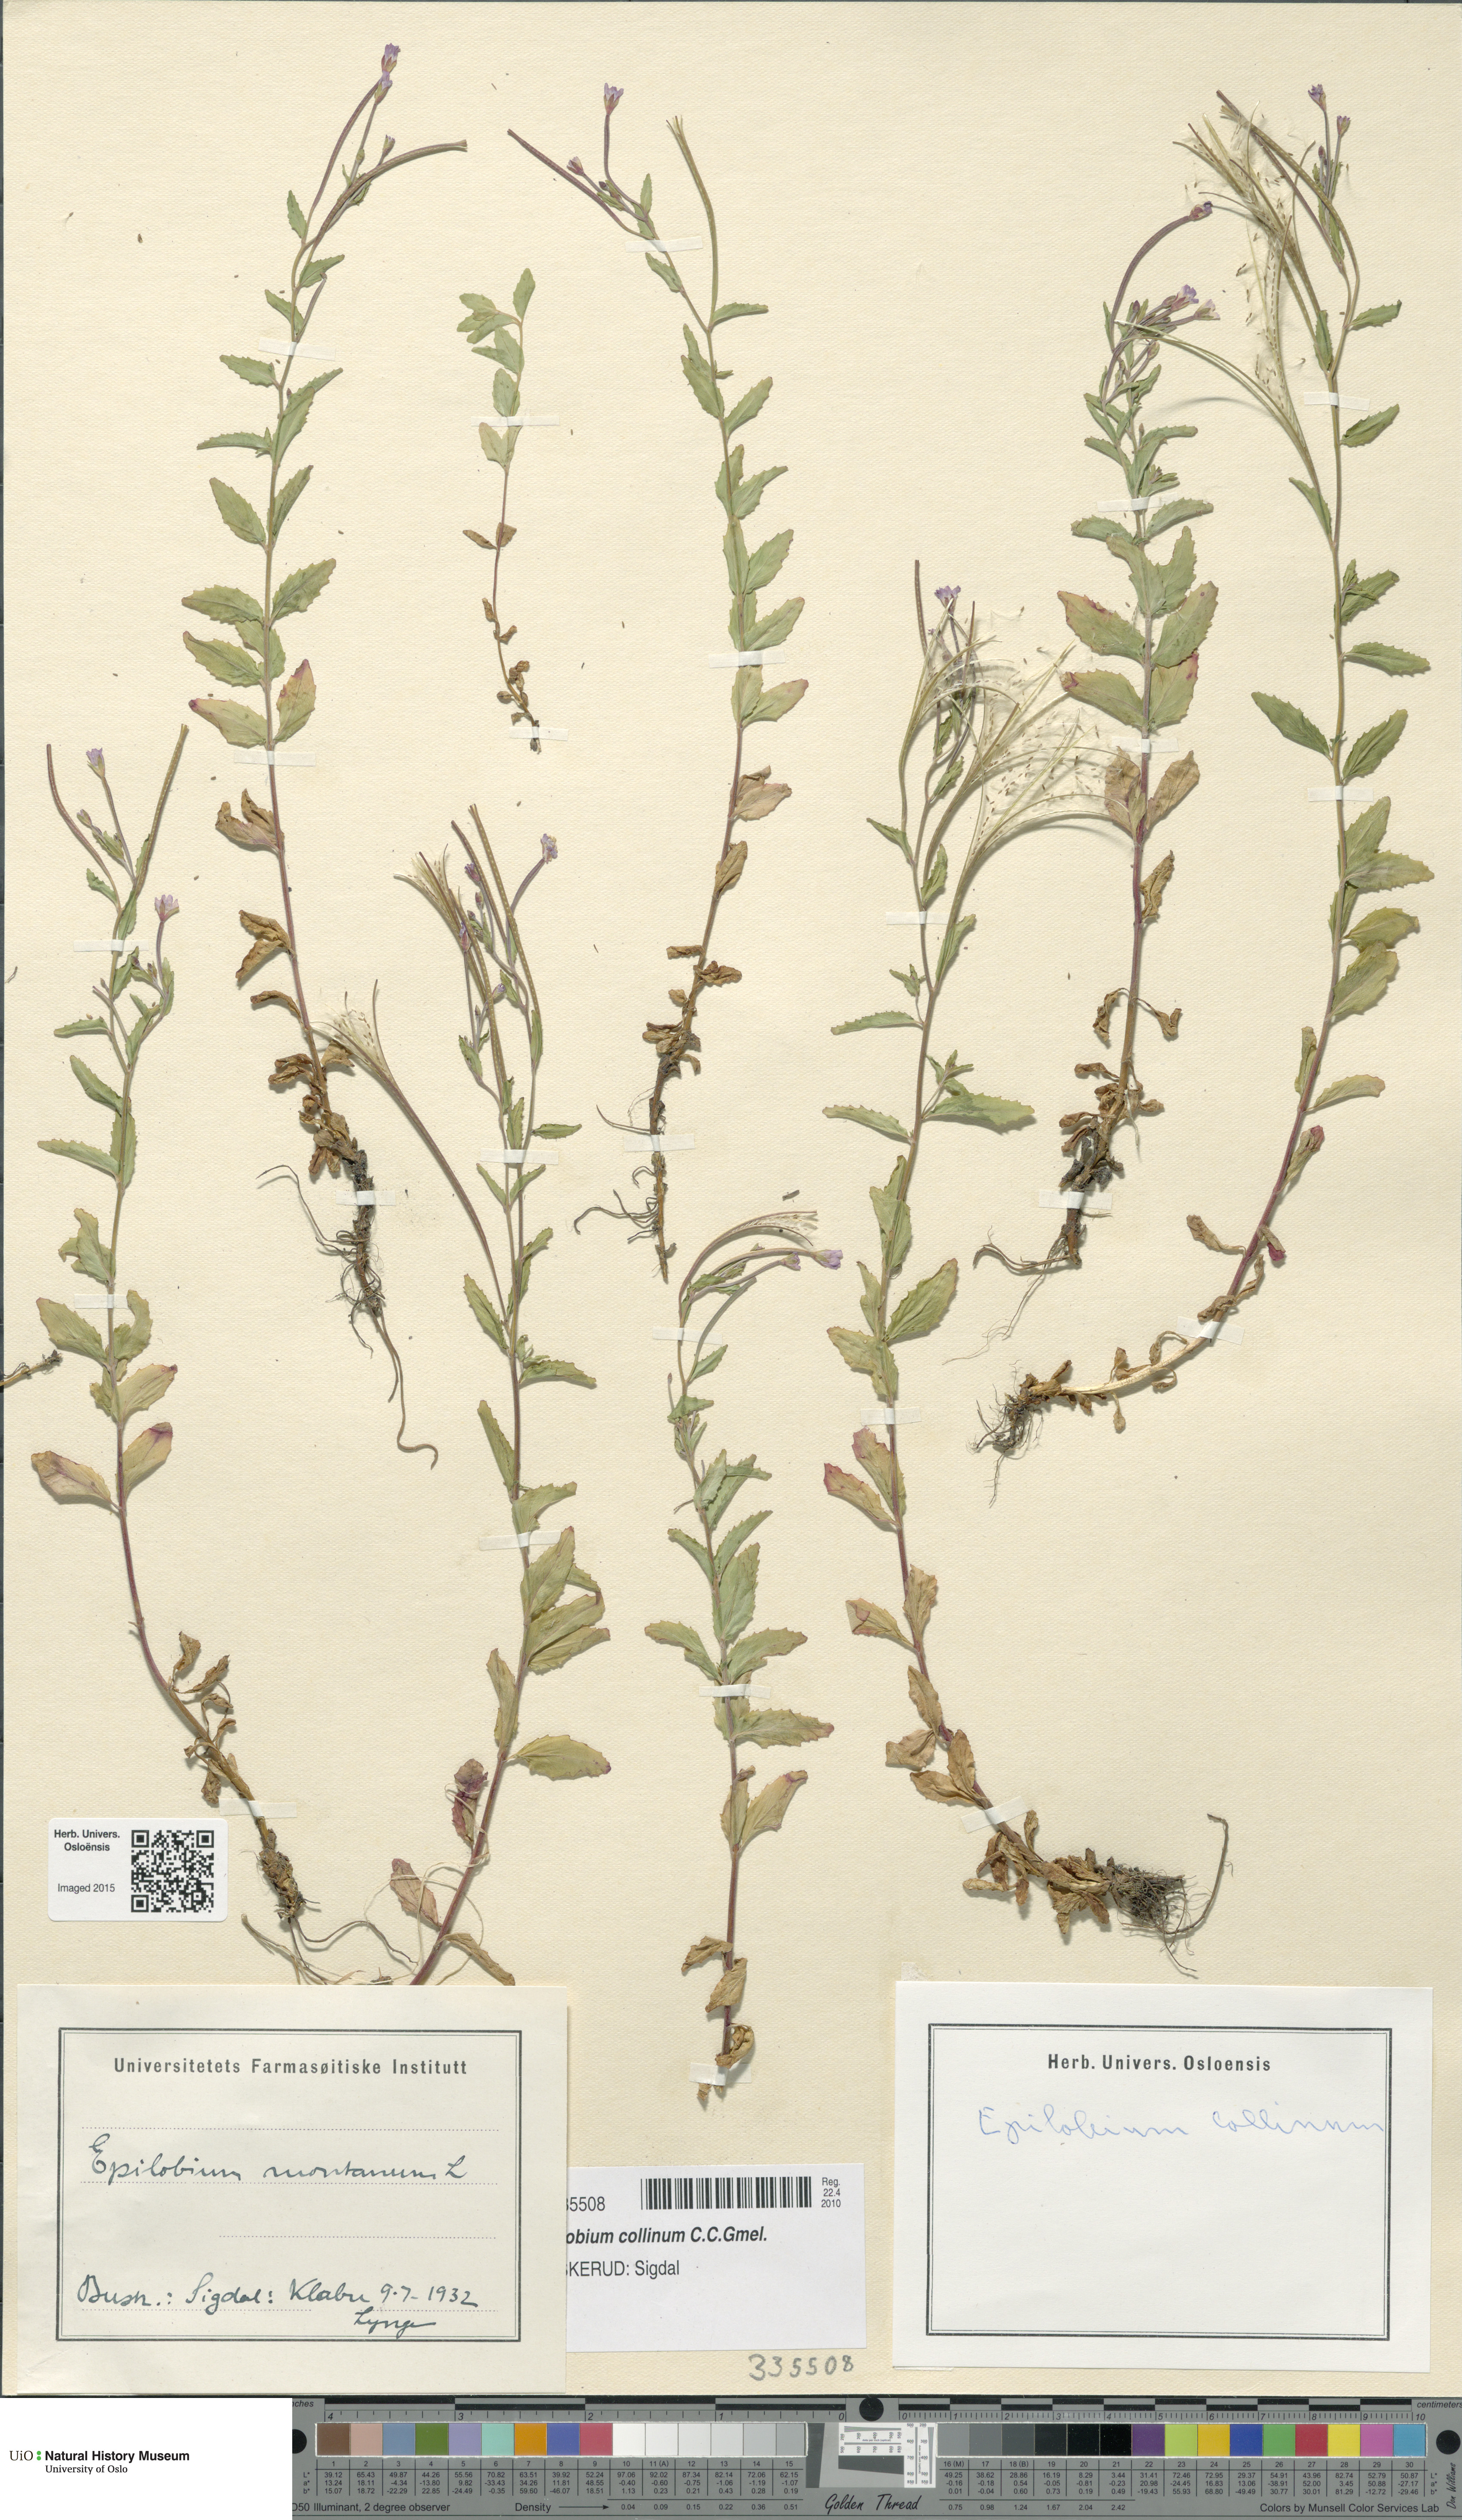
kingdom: Plantae
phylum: Tracheophyta
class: Magnoliopsida
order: Myrtales
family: Onagraceae
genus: Epilobium
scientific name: Epilobium collinum
